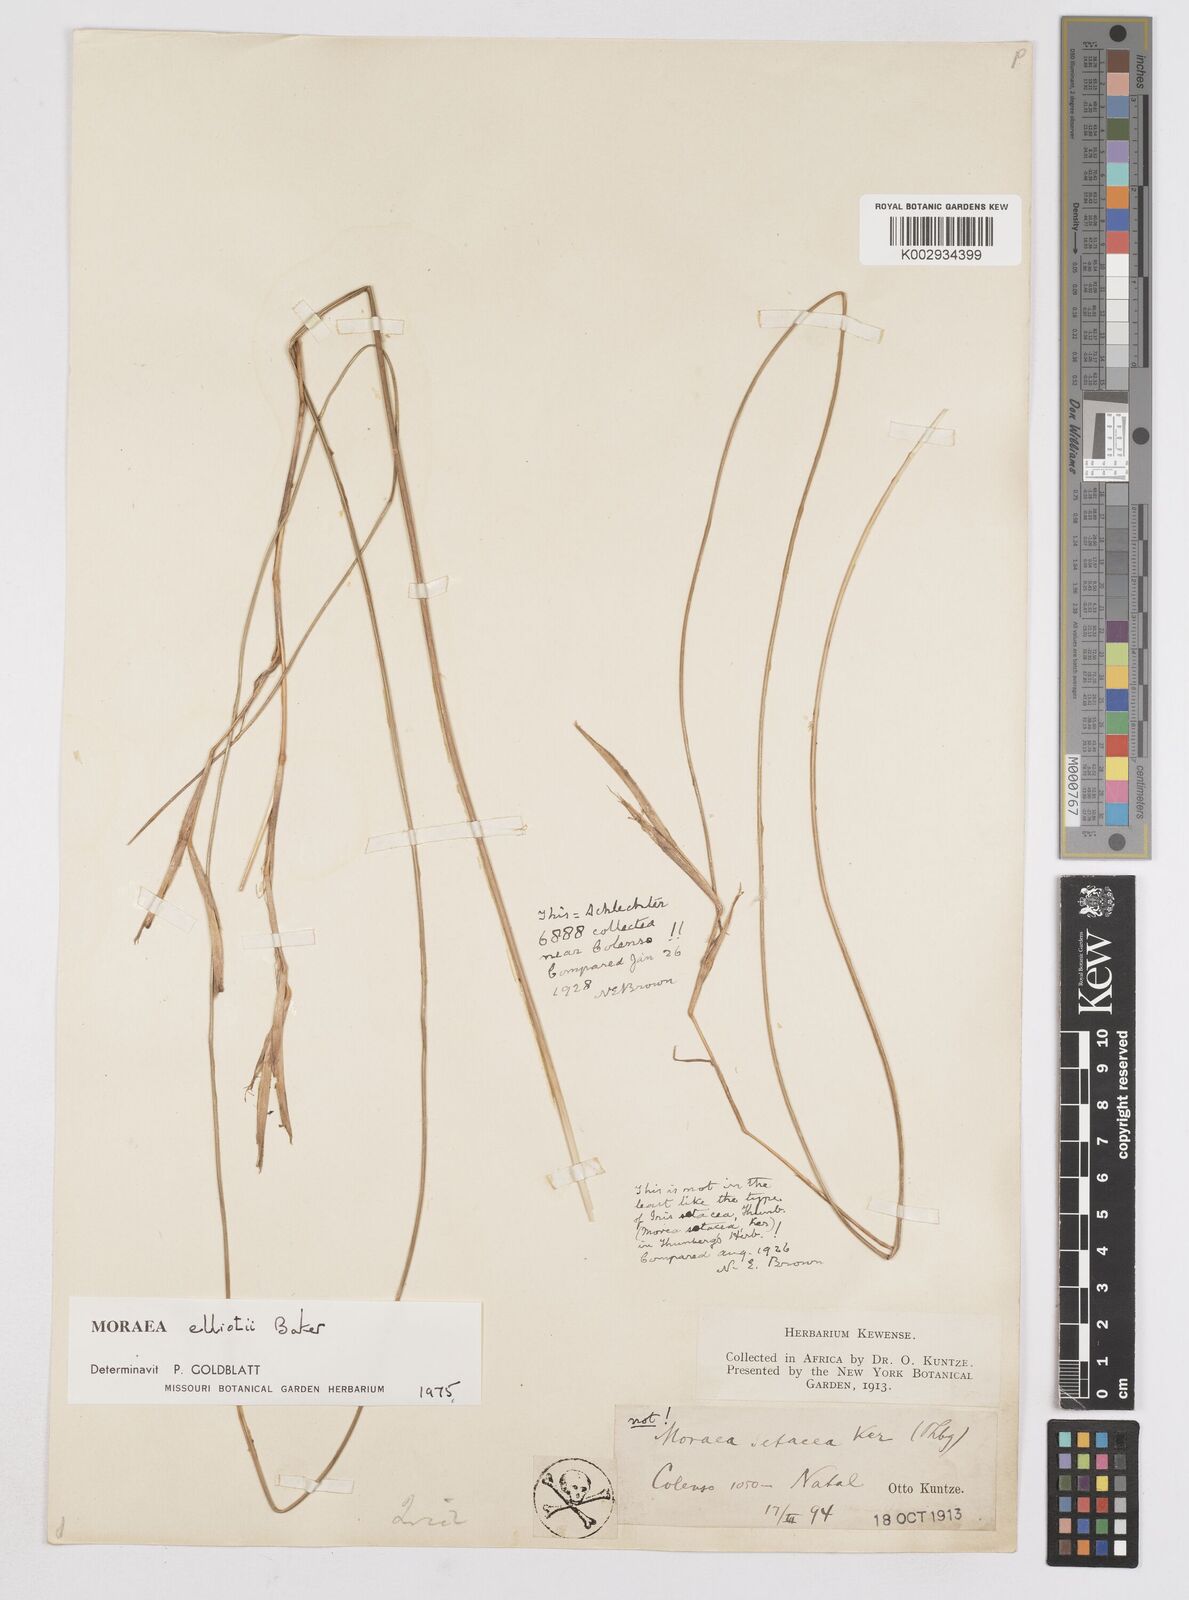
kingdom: Plantae
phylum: Tracheophyta
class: Liliopsida
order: Asparagales
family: Iridaceae
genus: Moraea
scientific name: Moraea elliotii
